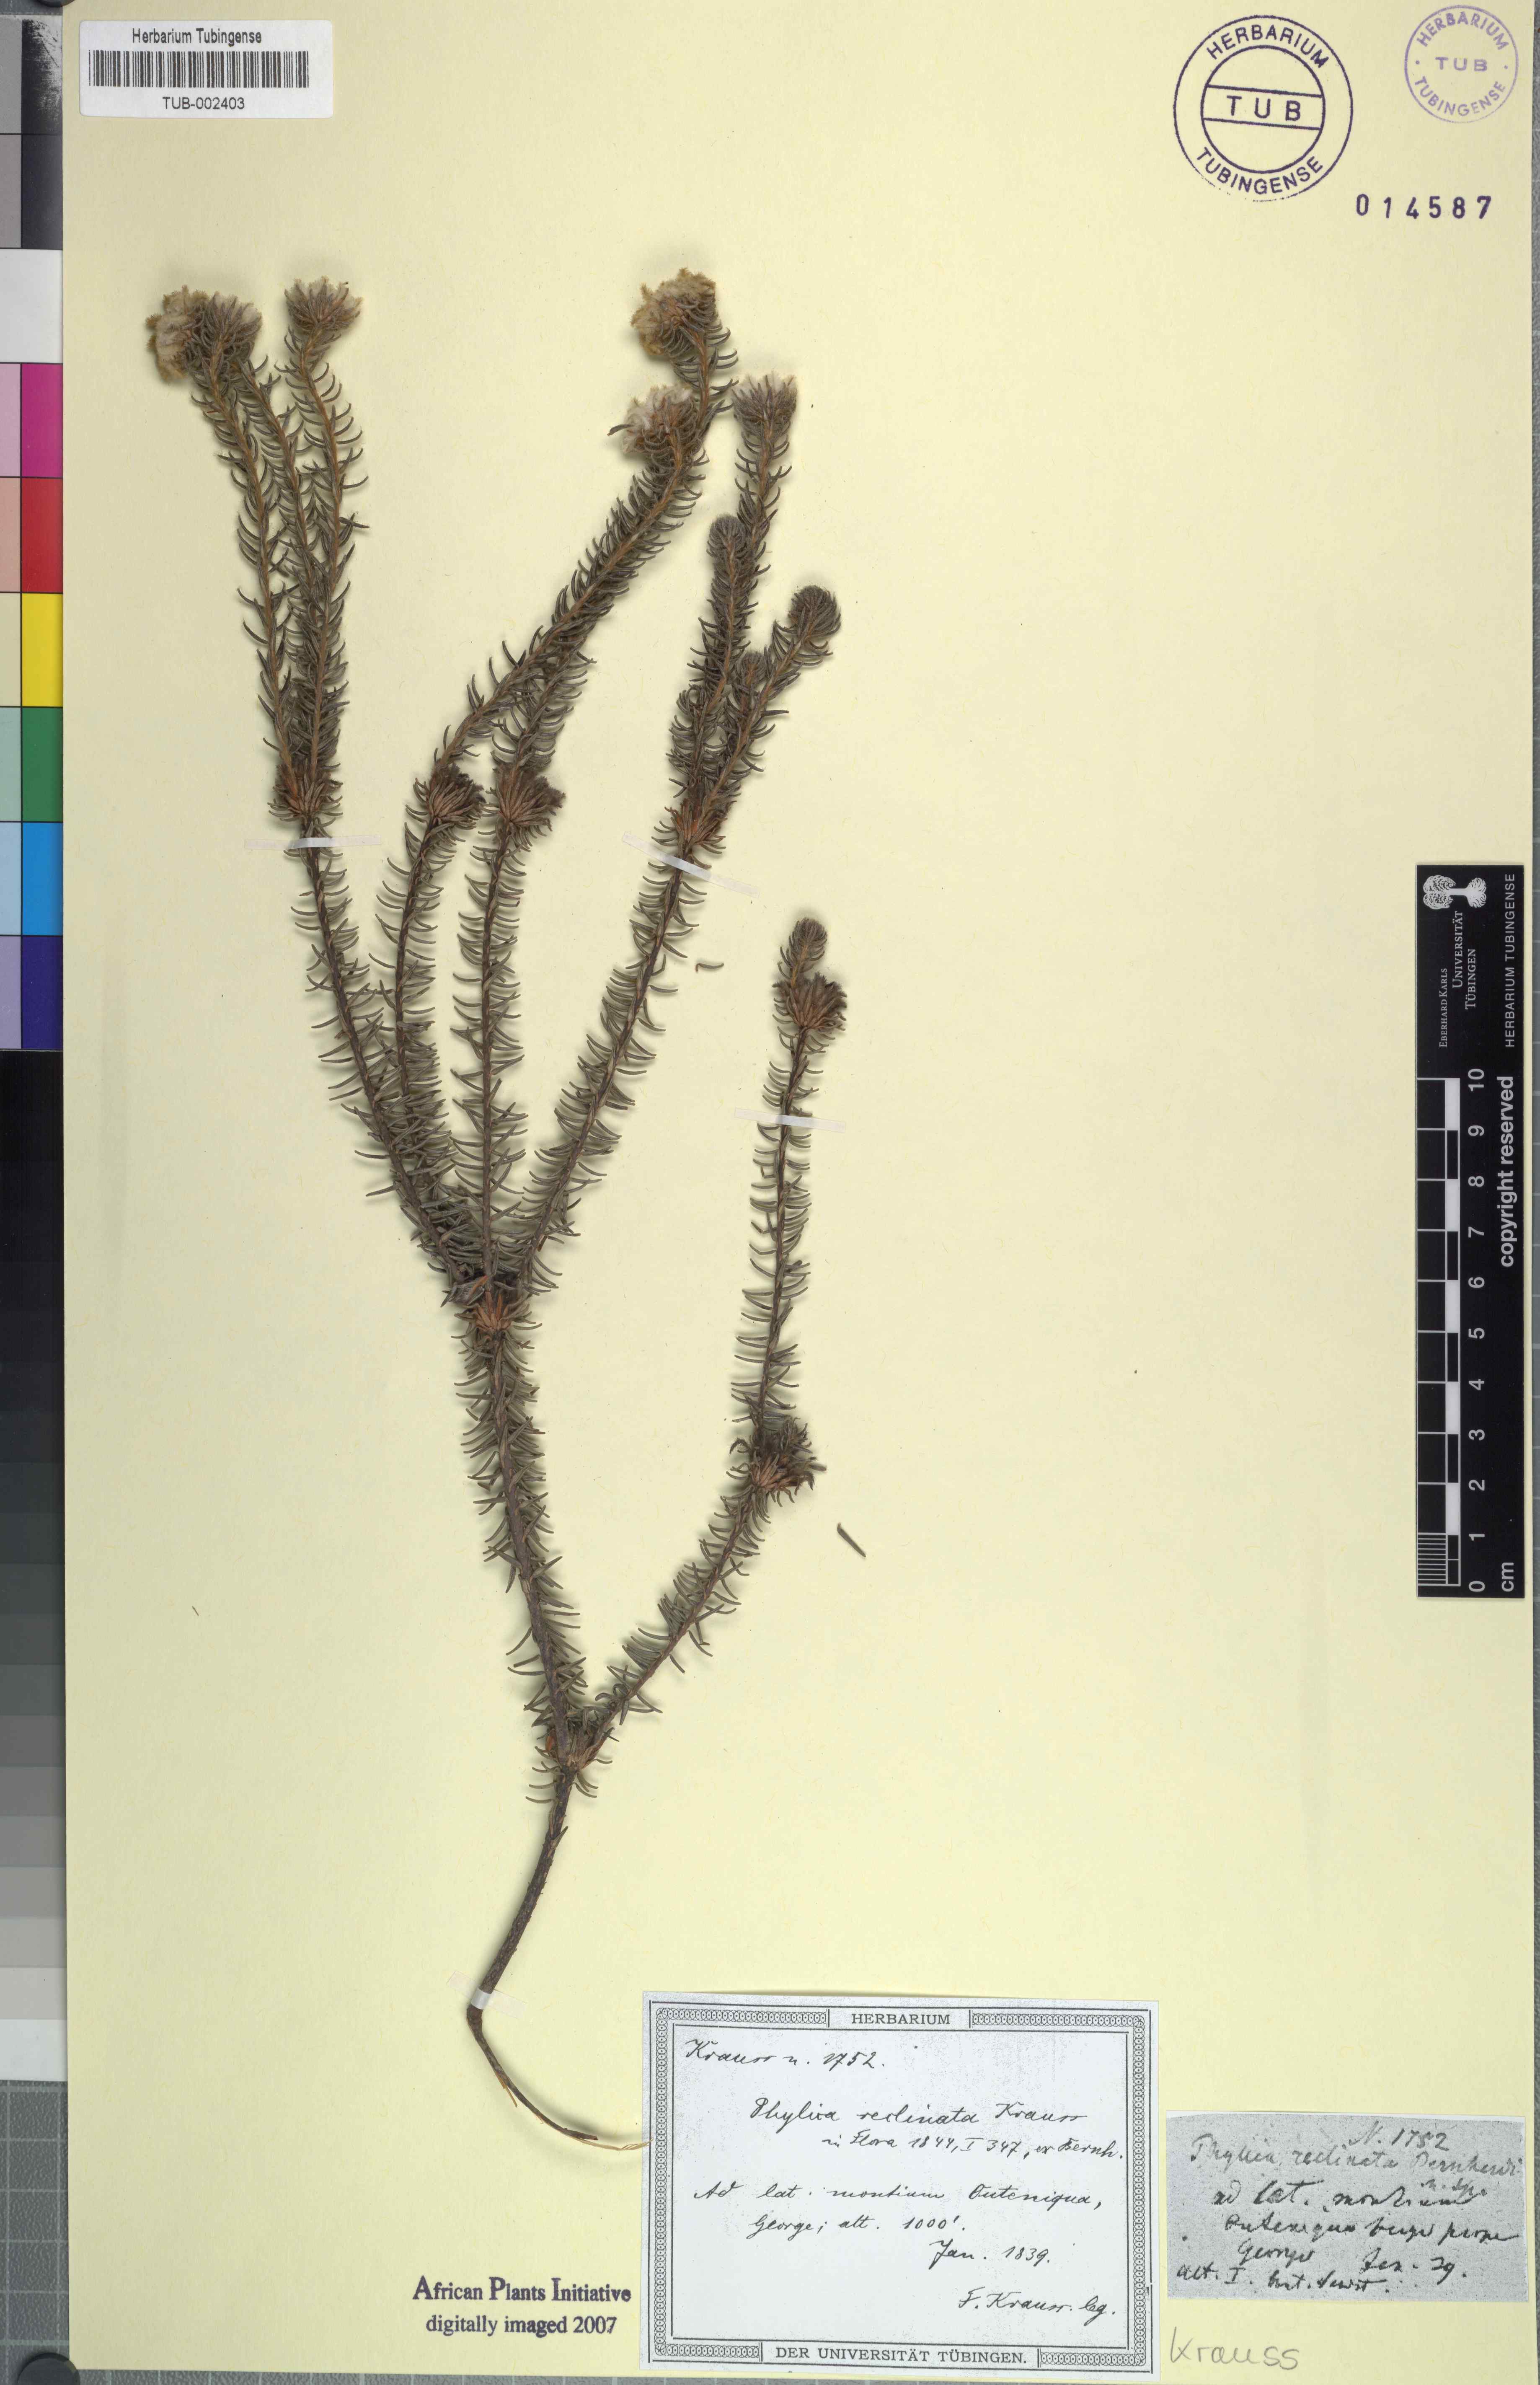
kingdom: Plantae
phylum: Tracheophyta
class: Magnoliopsida
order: Rosales
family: Rhamnaceae
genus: Phylica
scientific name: Phylica
